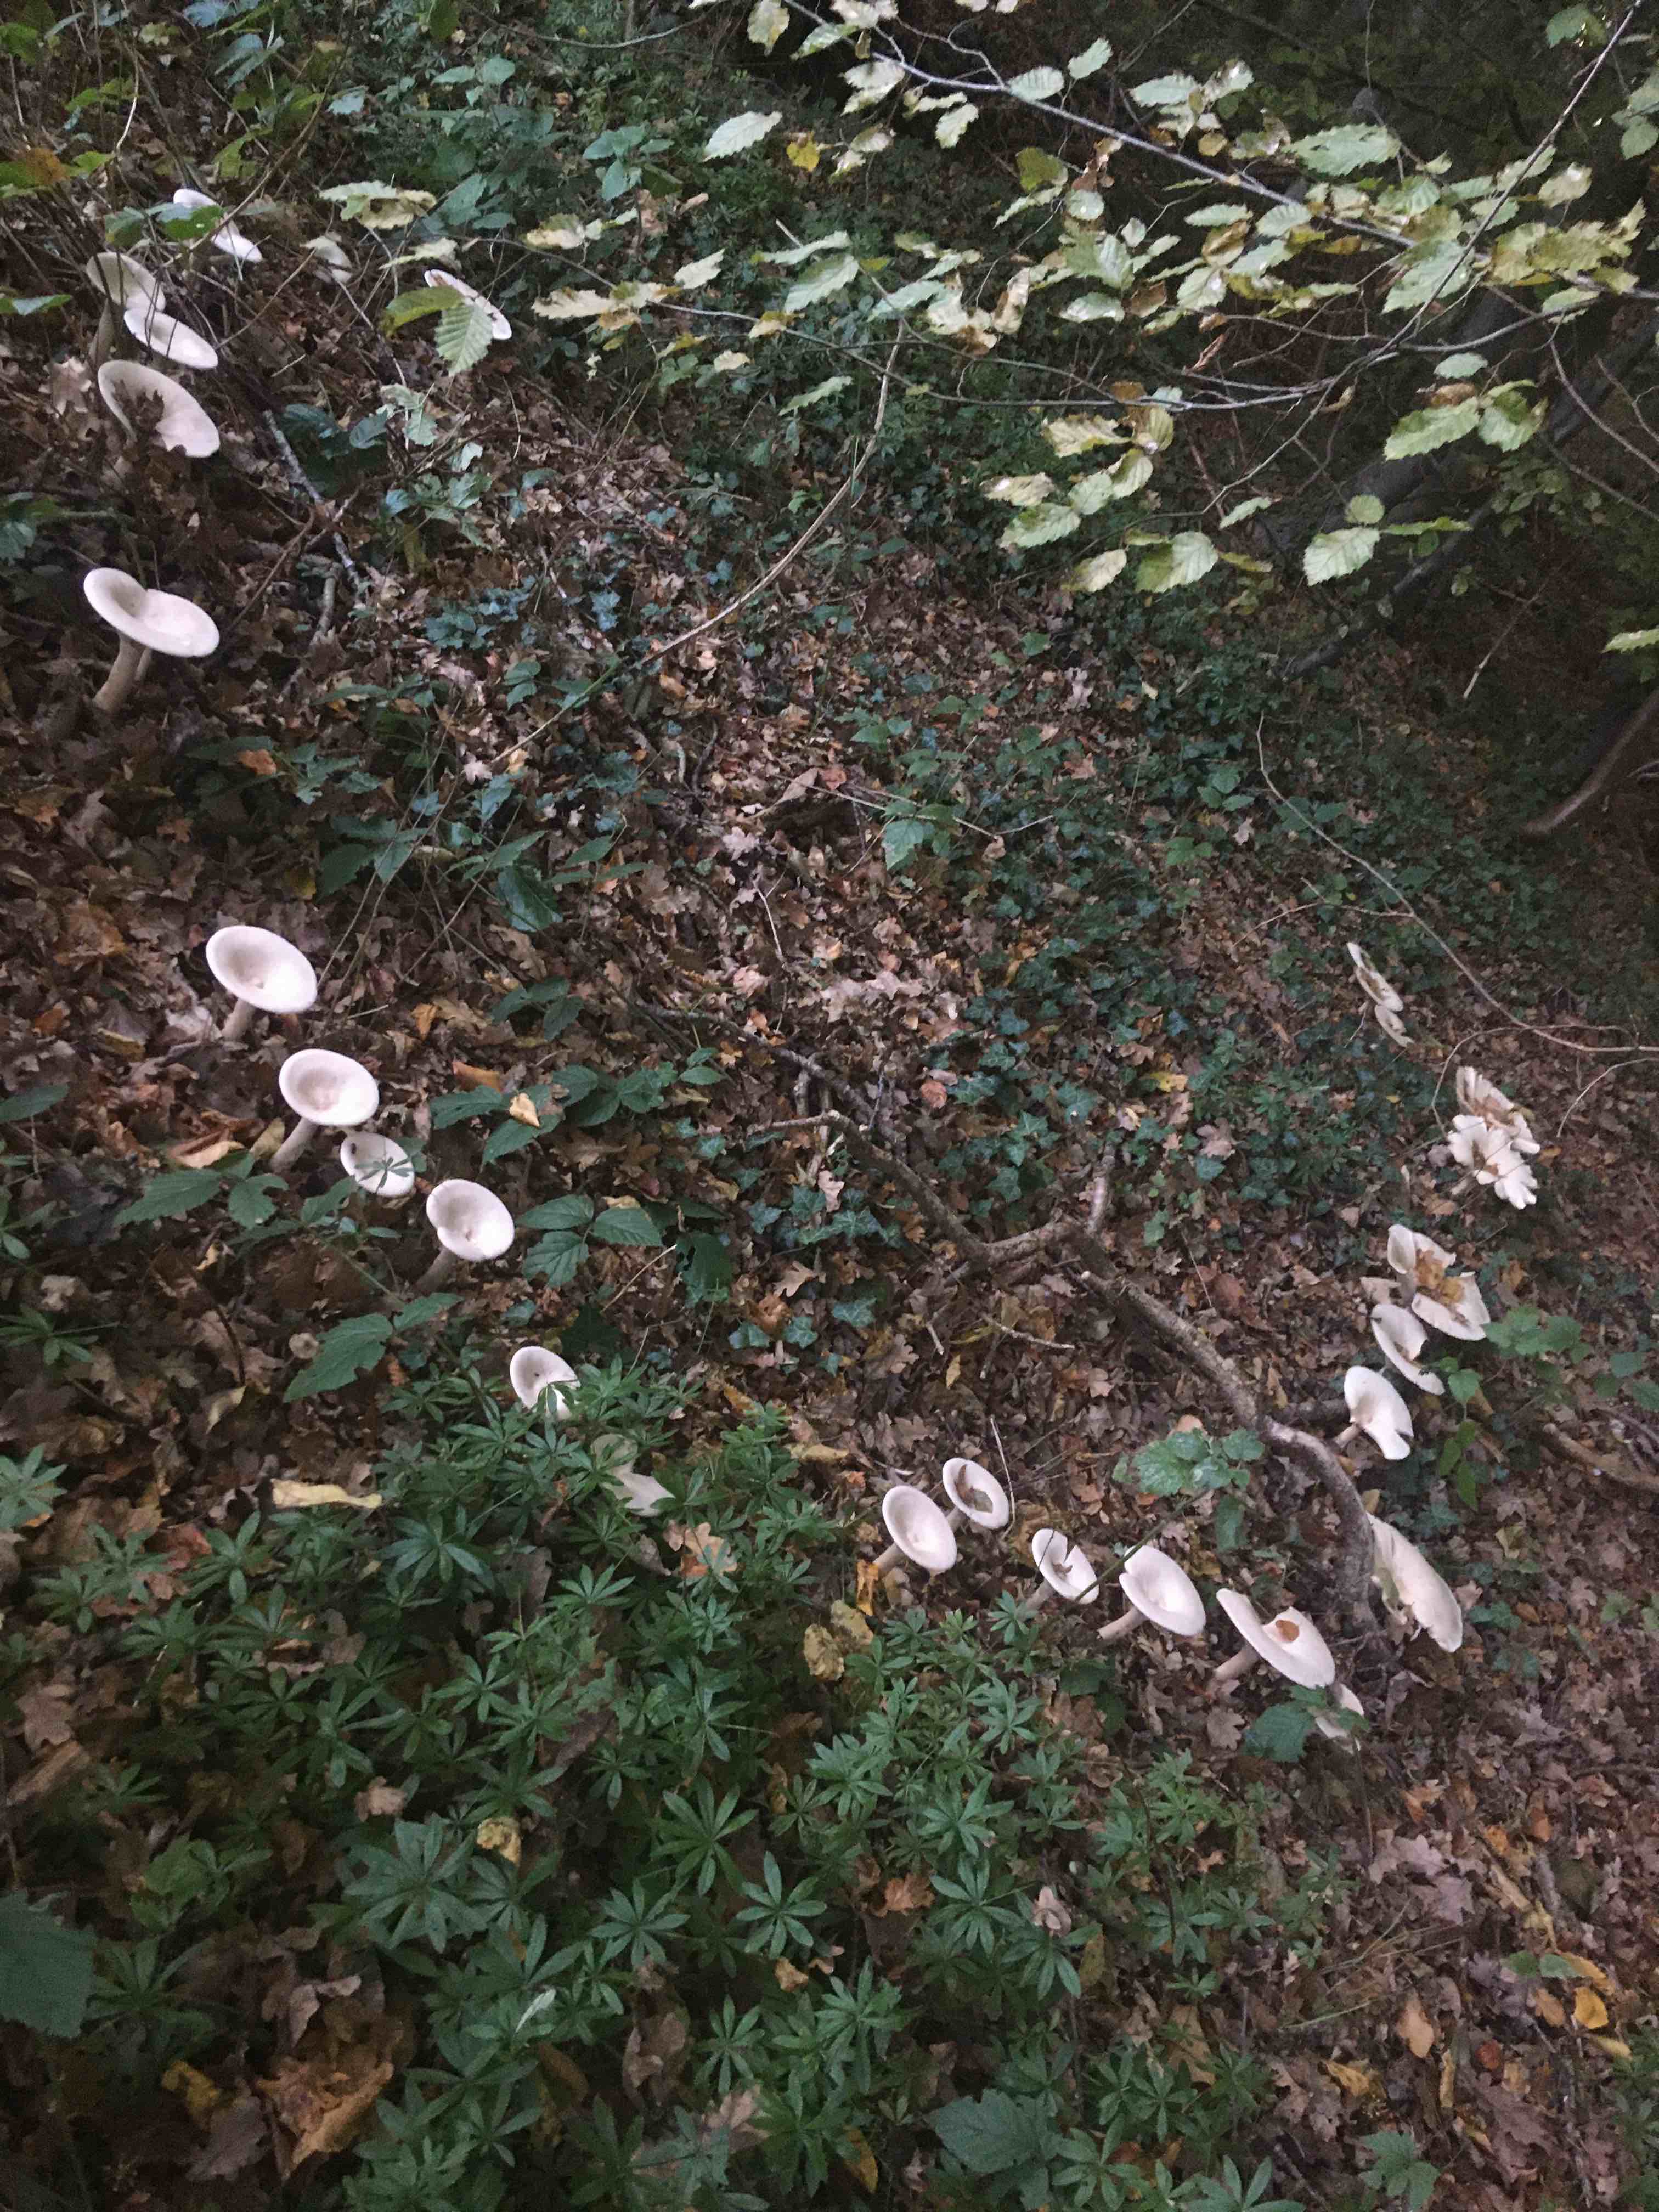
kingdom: Fungi
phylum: Basidiomycota
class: Agaricomycetes
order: Agaricales
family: Tricholomataceae
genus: Infundibulicybe
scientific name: Infundibulicybe geotropa
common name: stor tragthat
